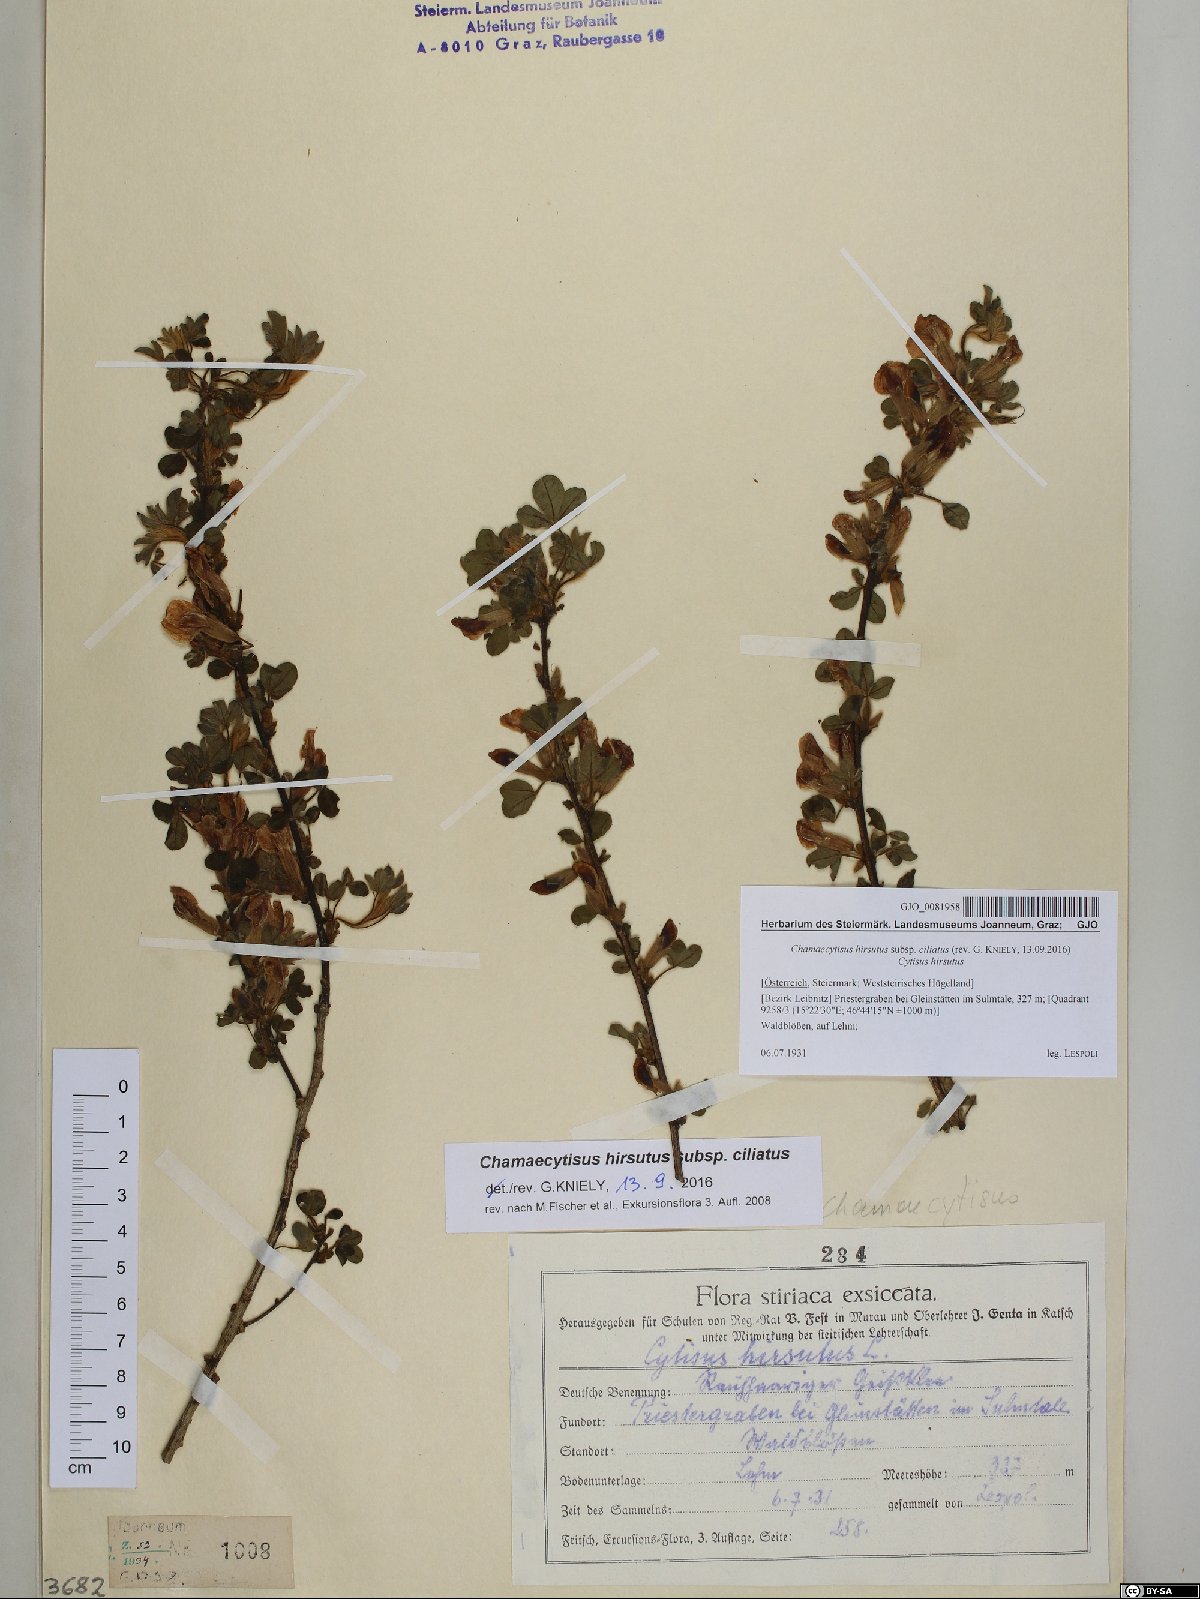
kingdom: Plantae
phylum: Tracheophyta
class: Magnoliopsida
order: Fabales
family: Fabaceae
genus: Chamaecytisus
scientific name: Chamaecytisus hirsutus
